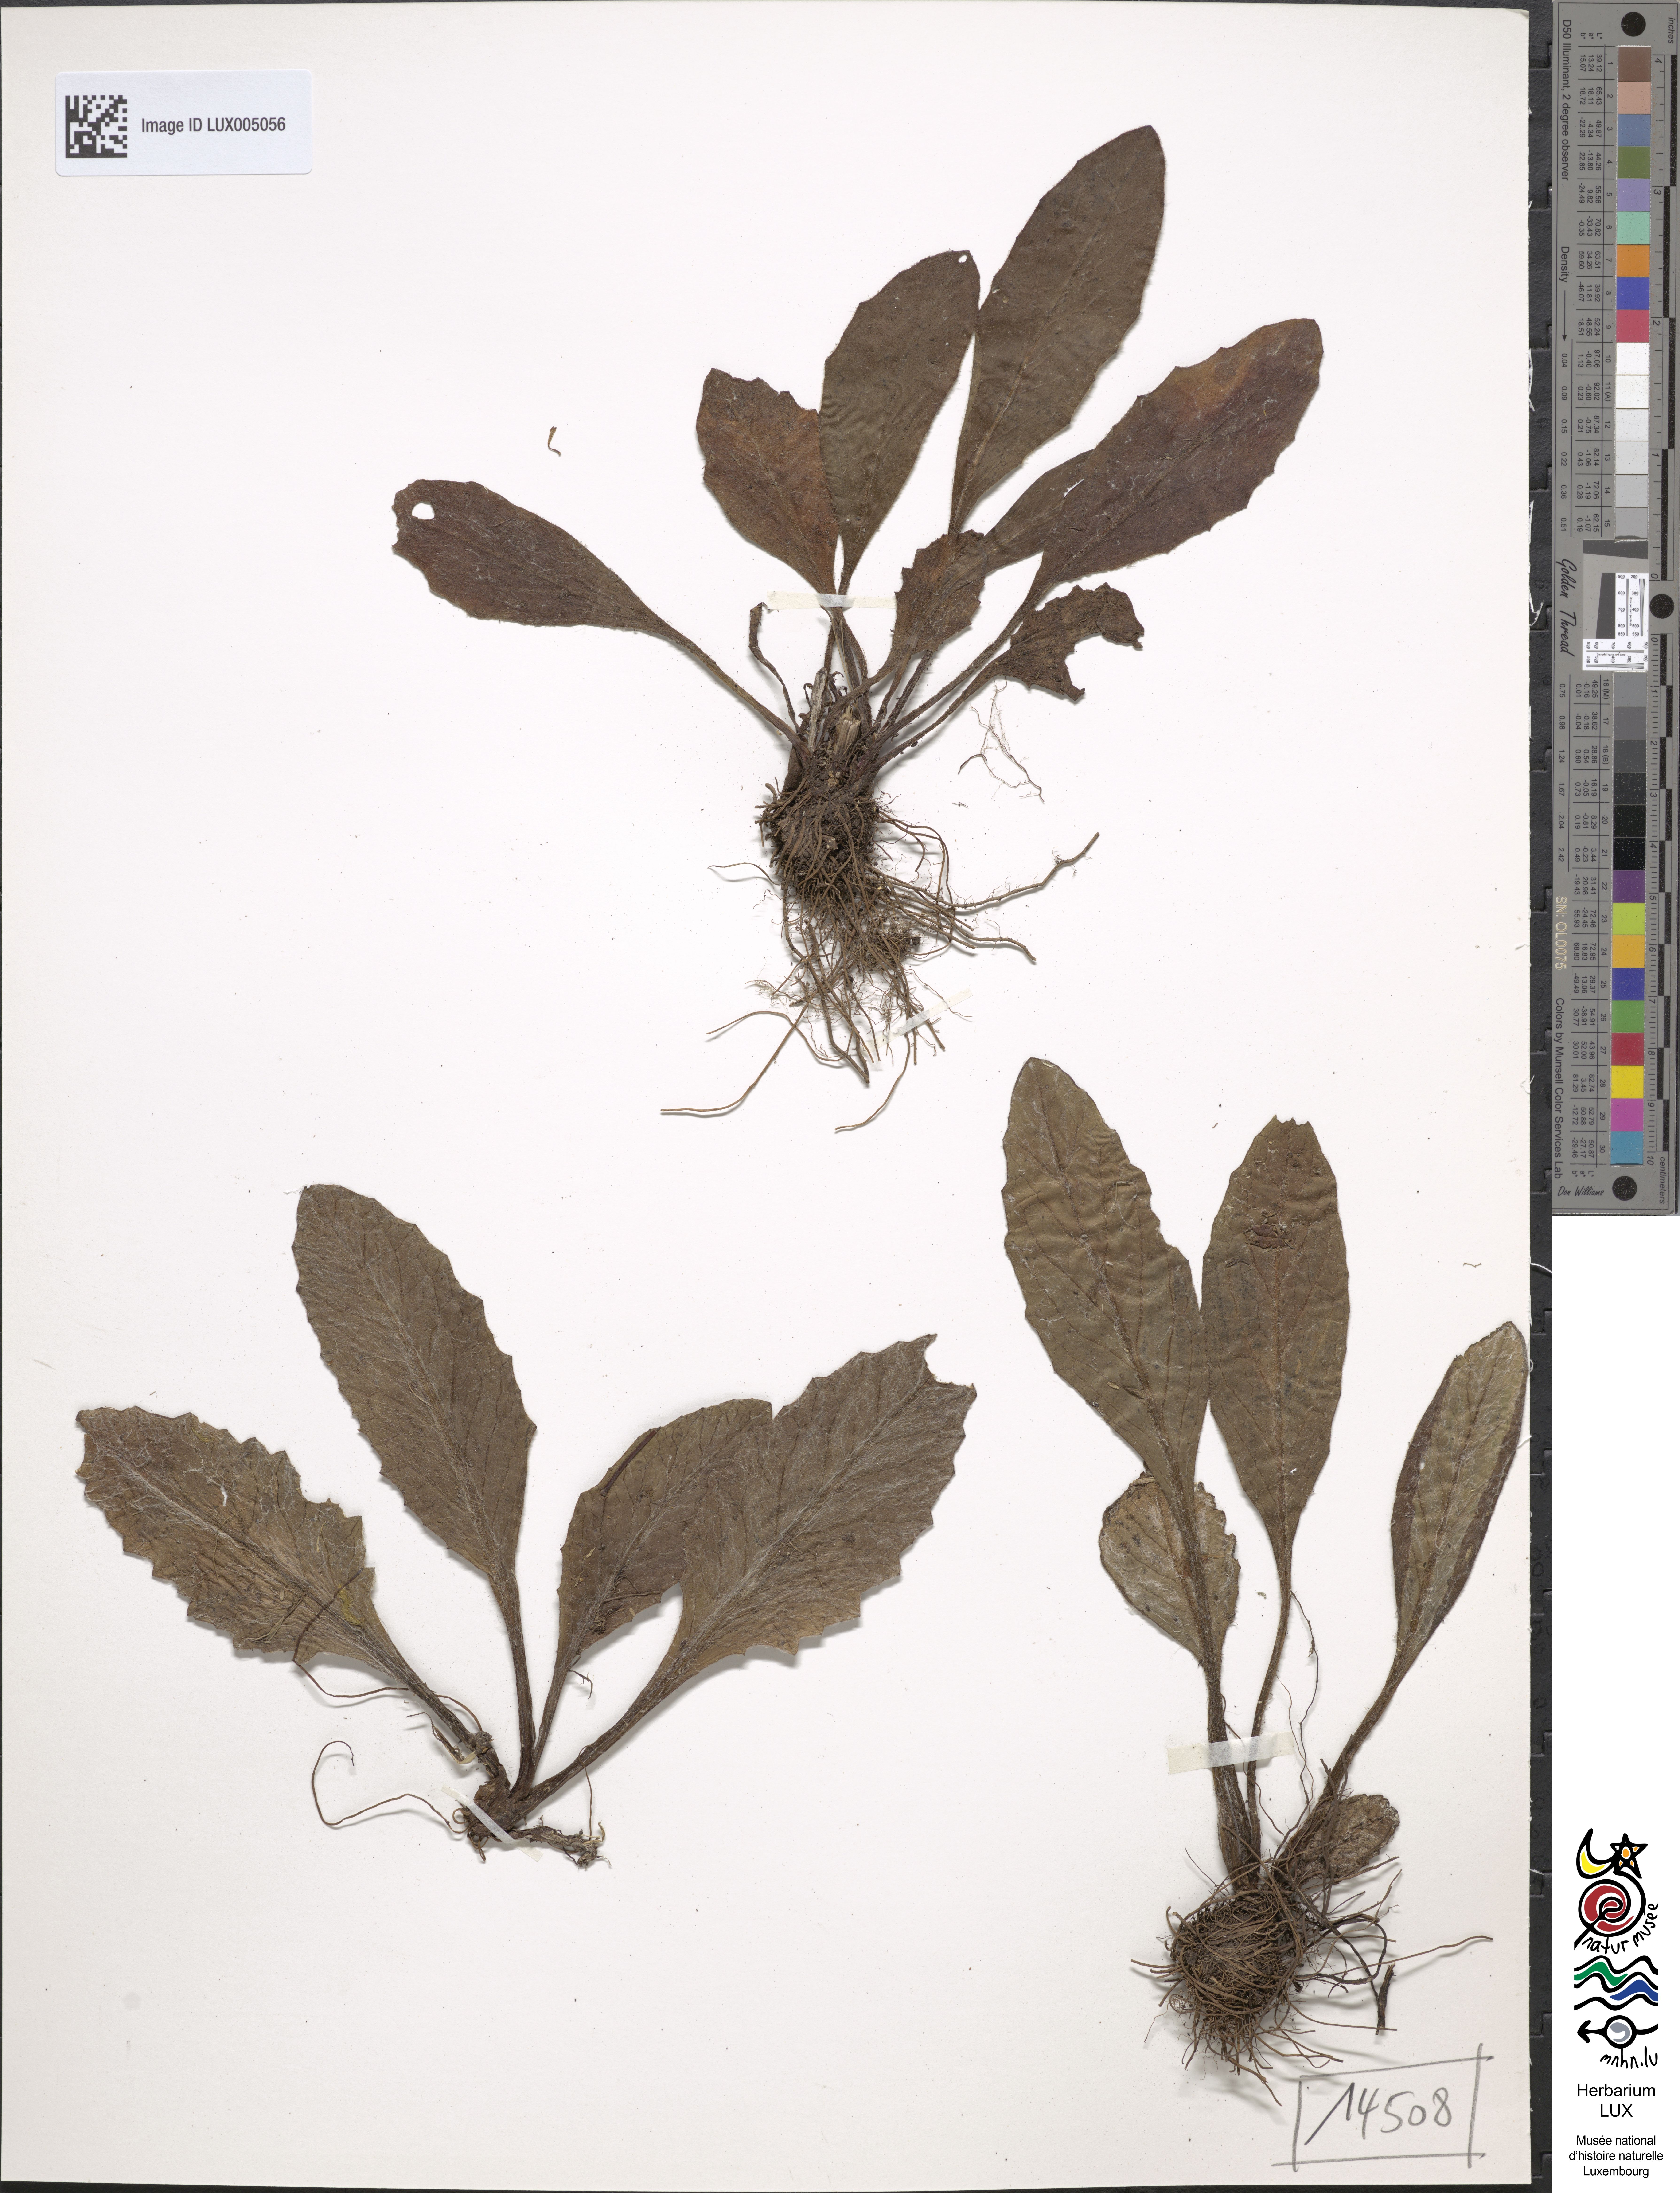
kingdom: Plantae
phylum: Tracheophyta
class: Magnoliopsida
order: Asterales
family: Asteraceae
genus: Tephroseris
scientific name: Tephroseris integrifolia
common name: Field fleawort
